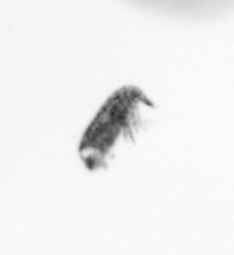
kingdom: Animalia
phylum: Arthropoda
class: Copepoda
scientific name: Copepoda
